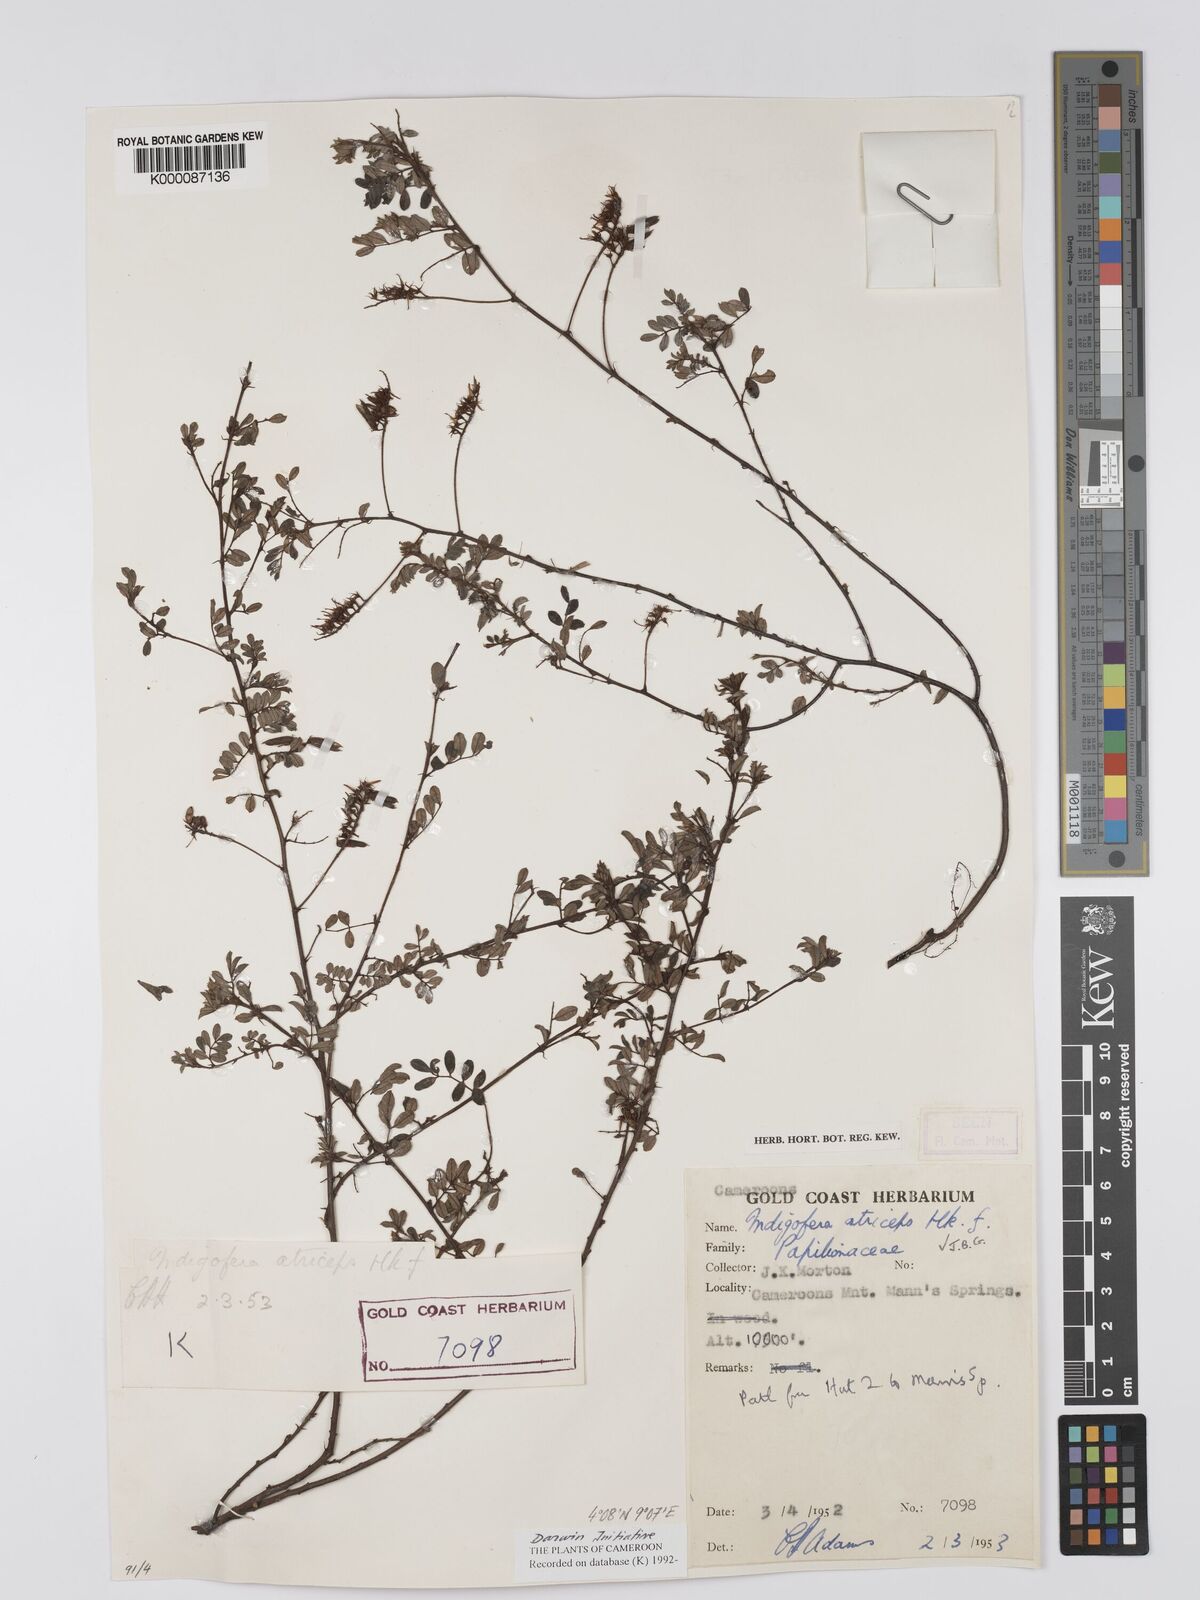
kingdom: Plantae
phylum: Tracheophyta
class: Magnoliopsida
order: Fabales
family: Fabaceae
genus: Indigofera
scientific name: Indigofera atriceps
